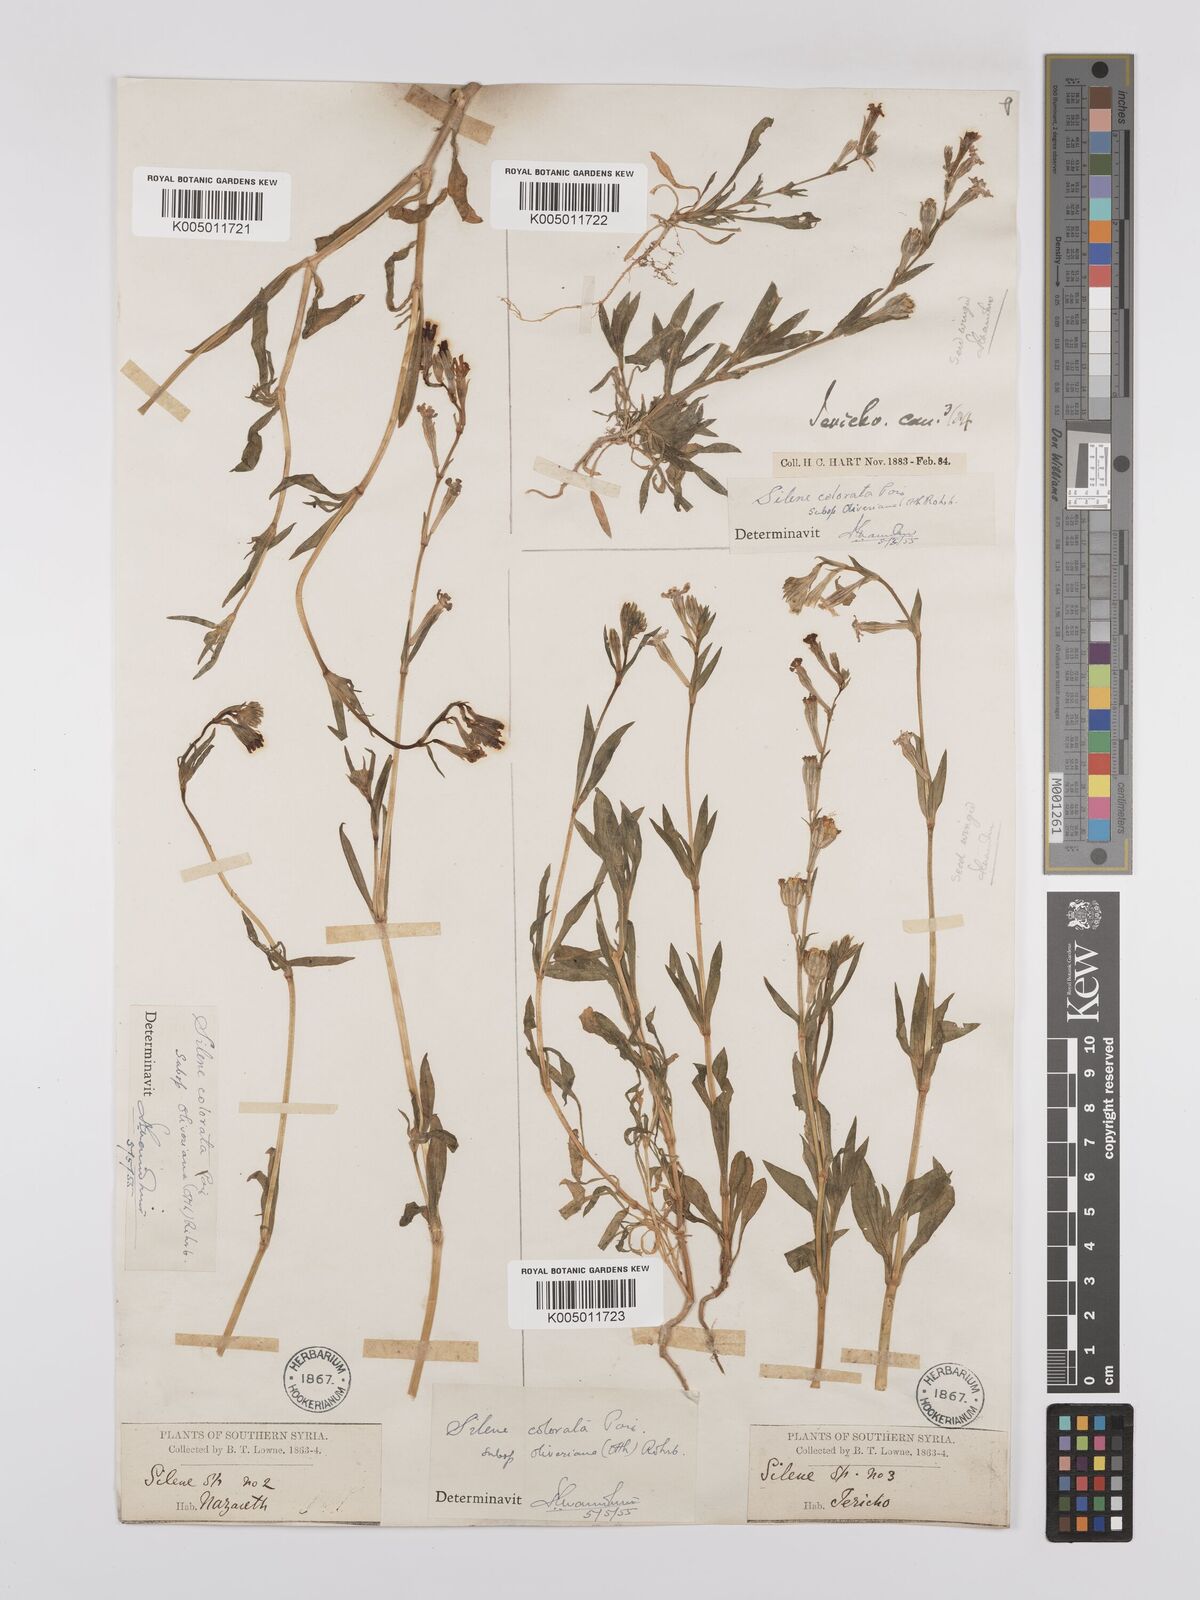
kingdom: Plantae
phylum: Tracheophyta
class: Magnoliopsida
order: Caryophyllales
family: Caryophyllaceae
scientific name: Caryophyllaceae
